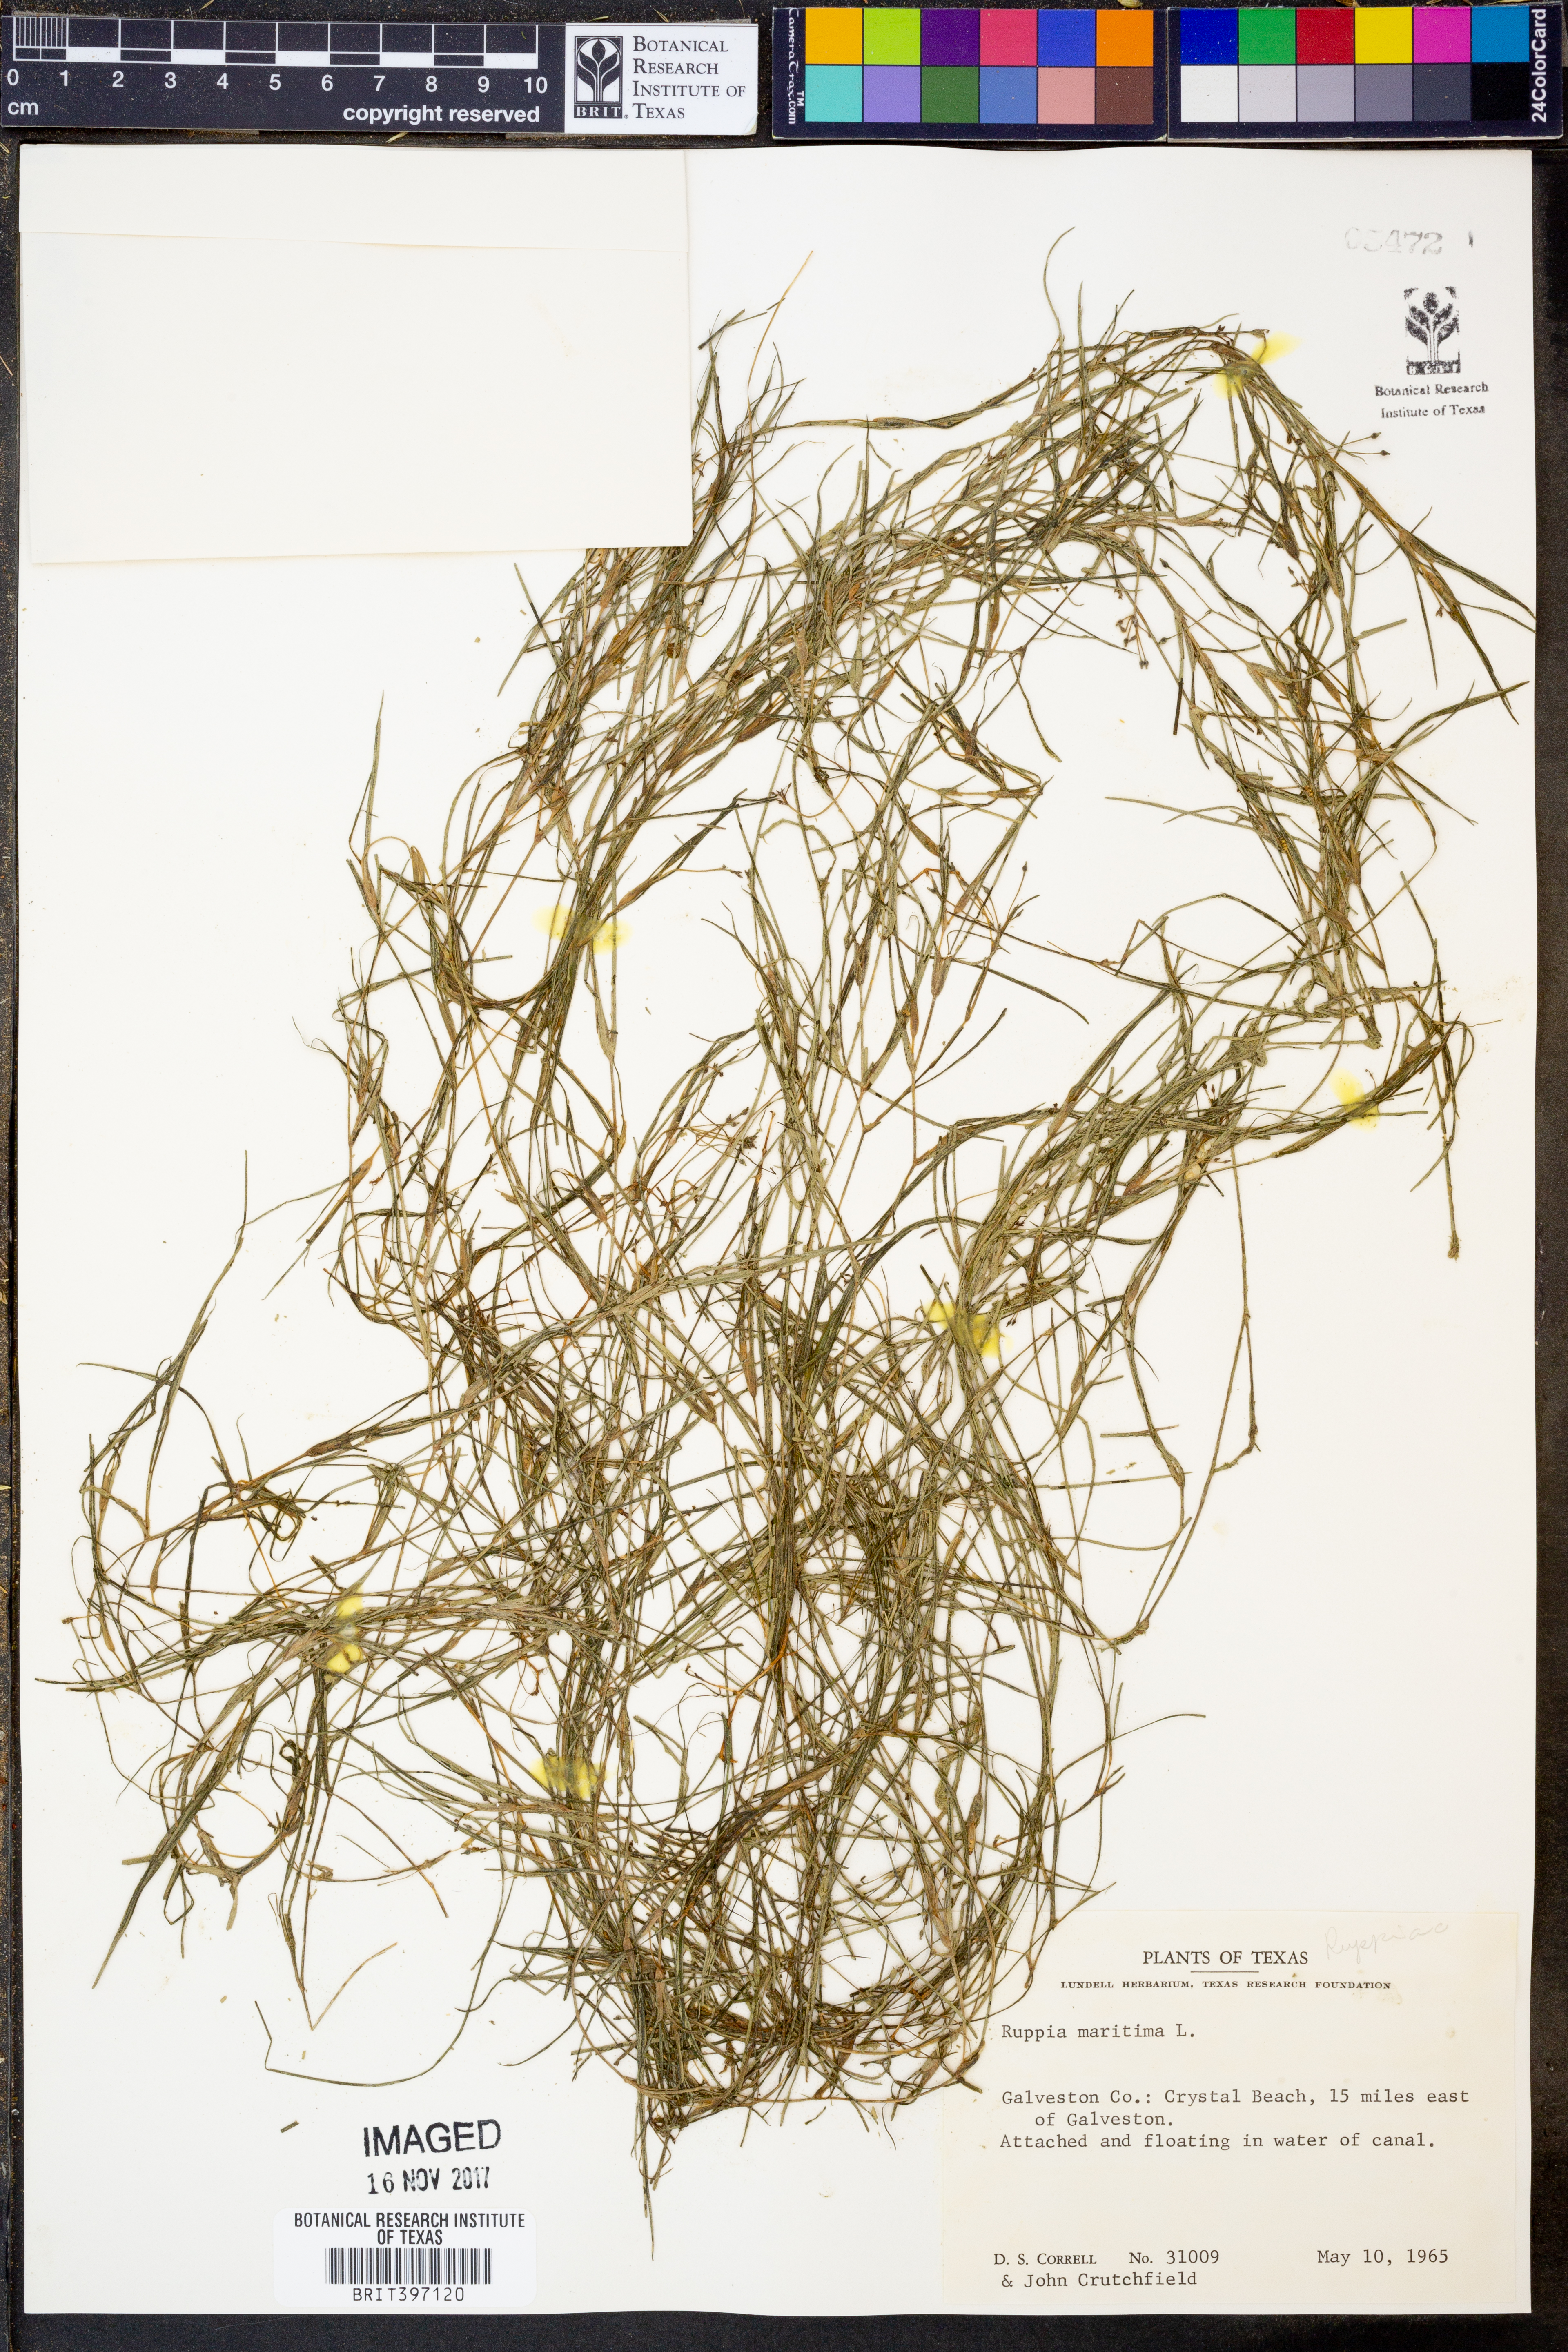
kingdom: Plantae
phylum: Tracheophyta
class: Liliopsida
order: Alismatales
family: Ruppiaceae
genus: Ruppia
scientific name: Ruppia maritima
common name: Beaked tasselweed
